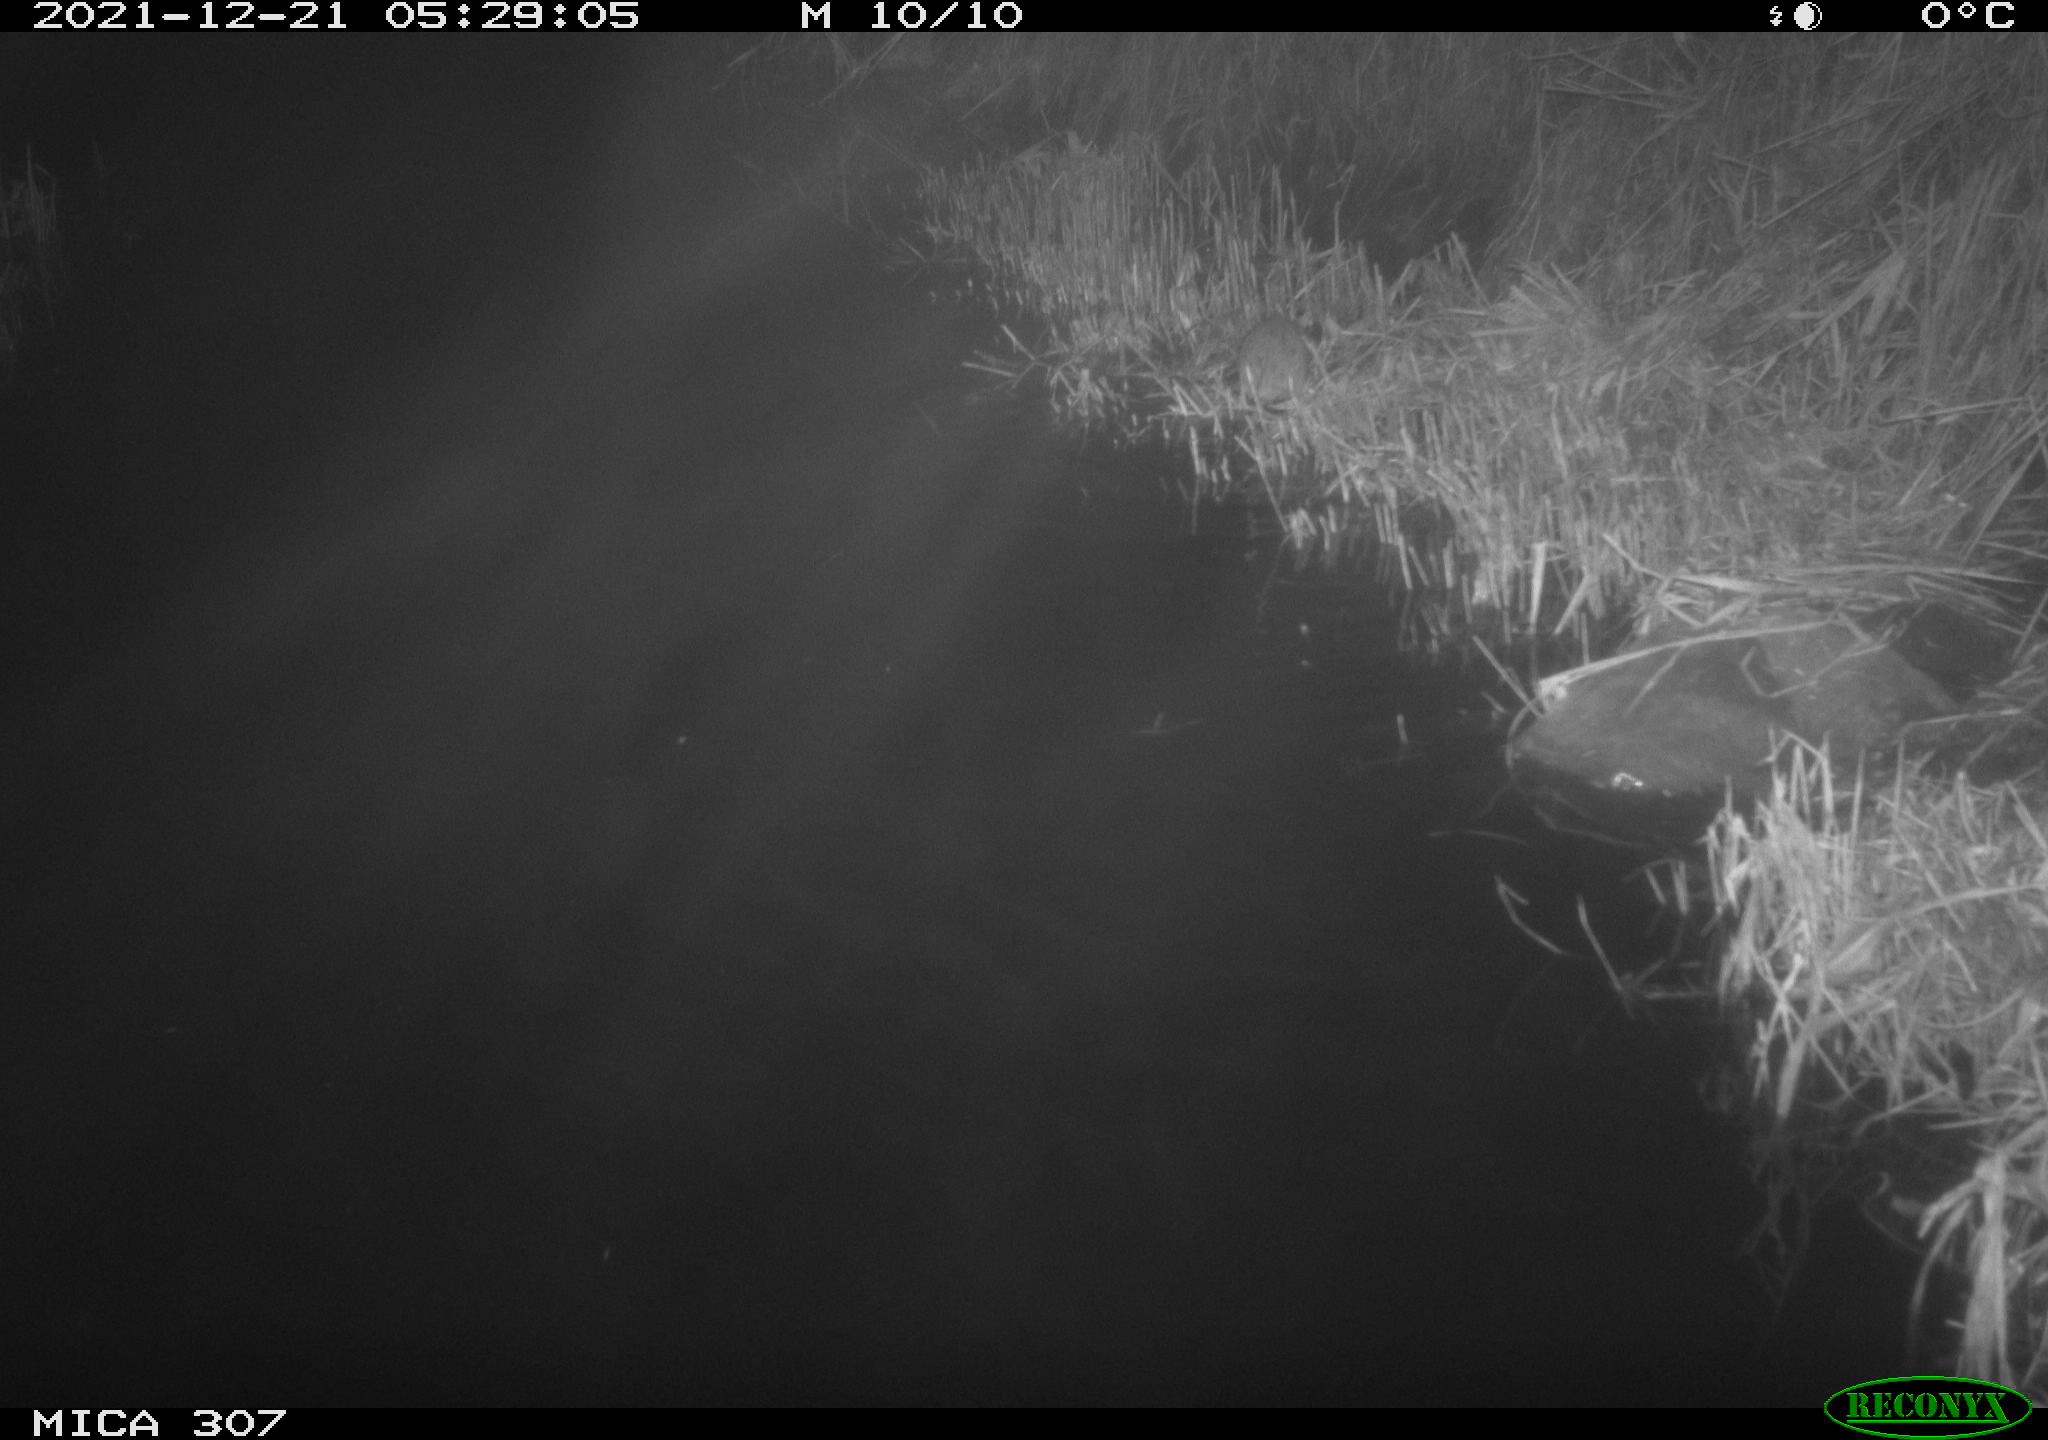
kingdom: Animalia
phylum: Chordata
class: Mammalia
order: Rodentia
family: Muridae
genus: Rattus
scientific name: Rattus norvegicus
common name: Brown rat
